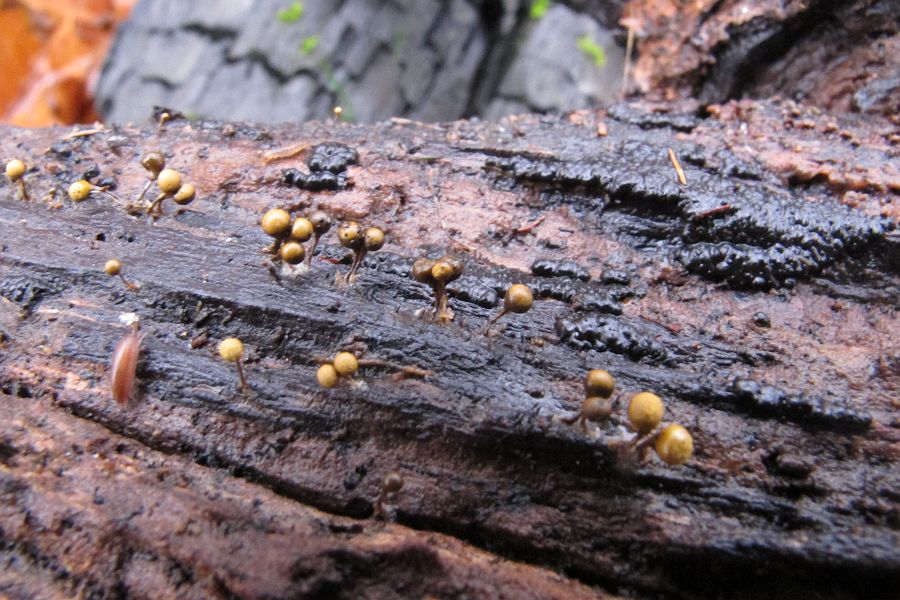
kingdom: Protozoa
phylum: Mycetozoa
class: Myxomycetes
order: Trichiales
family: Arcyriaceae
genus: Hemitrichia
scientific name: Hemitrichia decipiens
